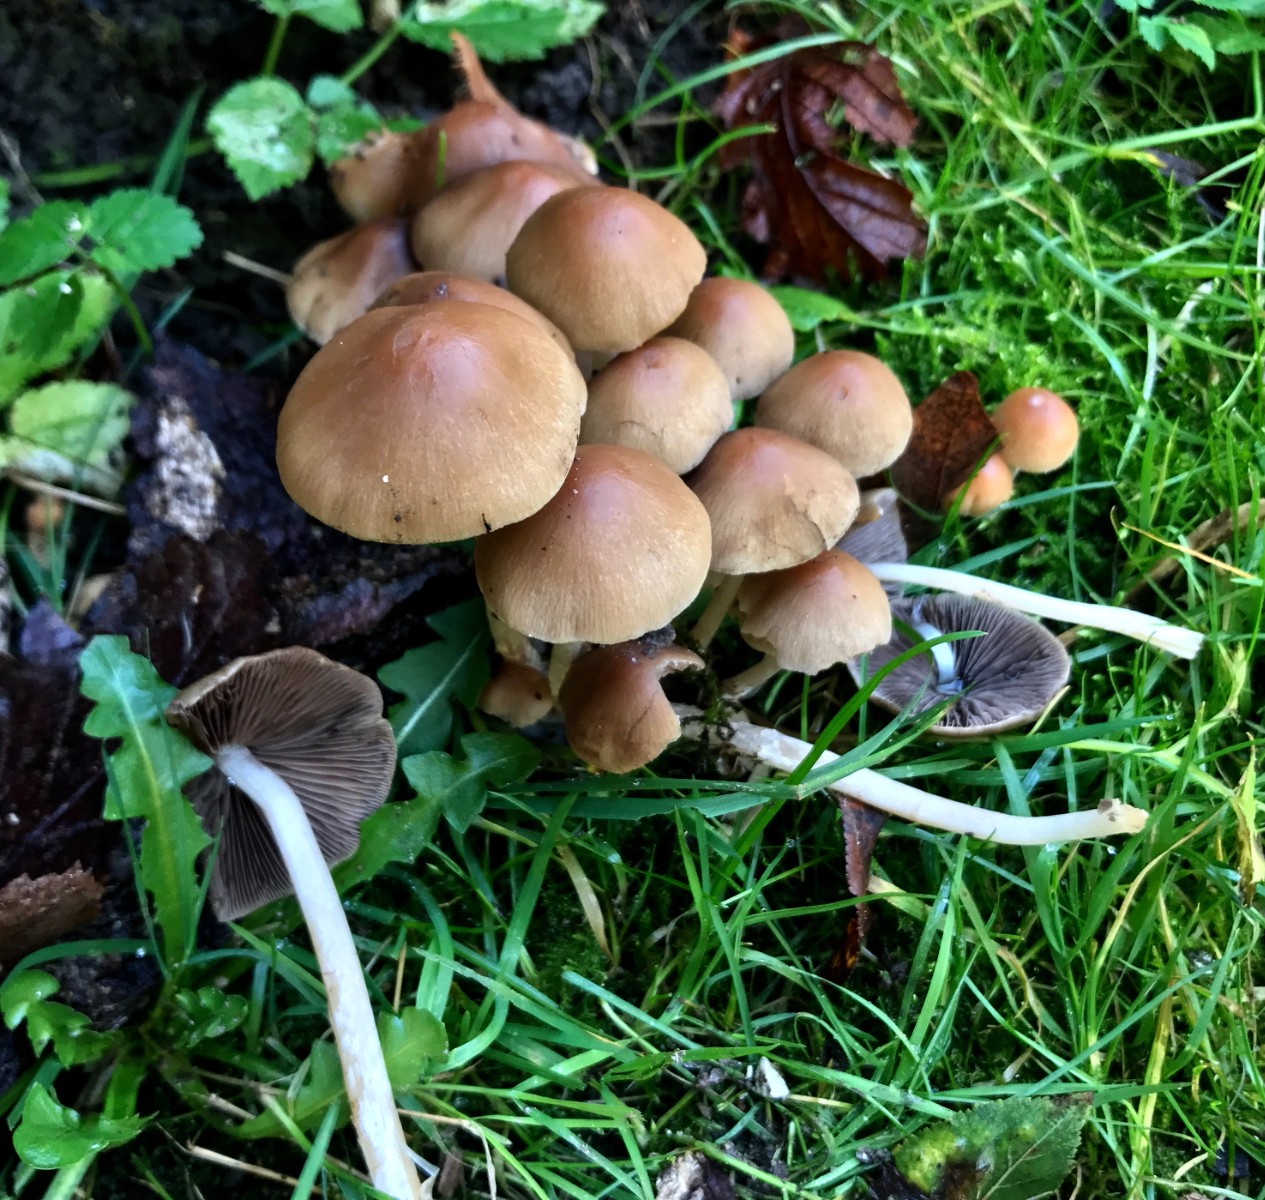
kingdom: Fungi
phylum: Basidiomycota
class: Agaricomycetes
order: Agaricales
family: Psathyrellaceae
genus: Psathyrella
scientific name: Psathyrella piluliformis
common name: lysstokket mørkhat
